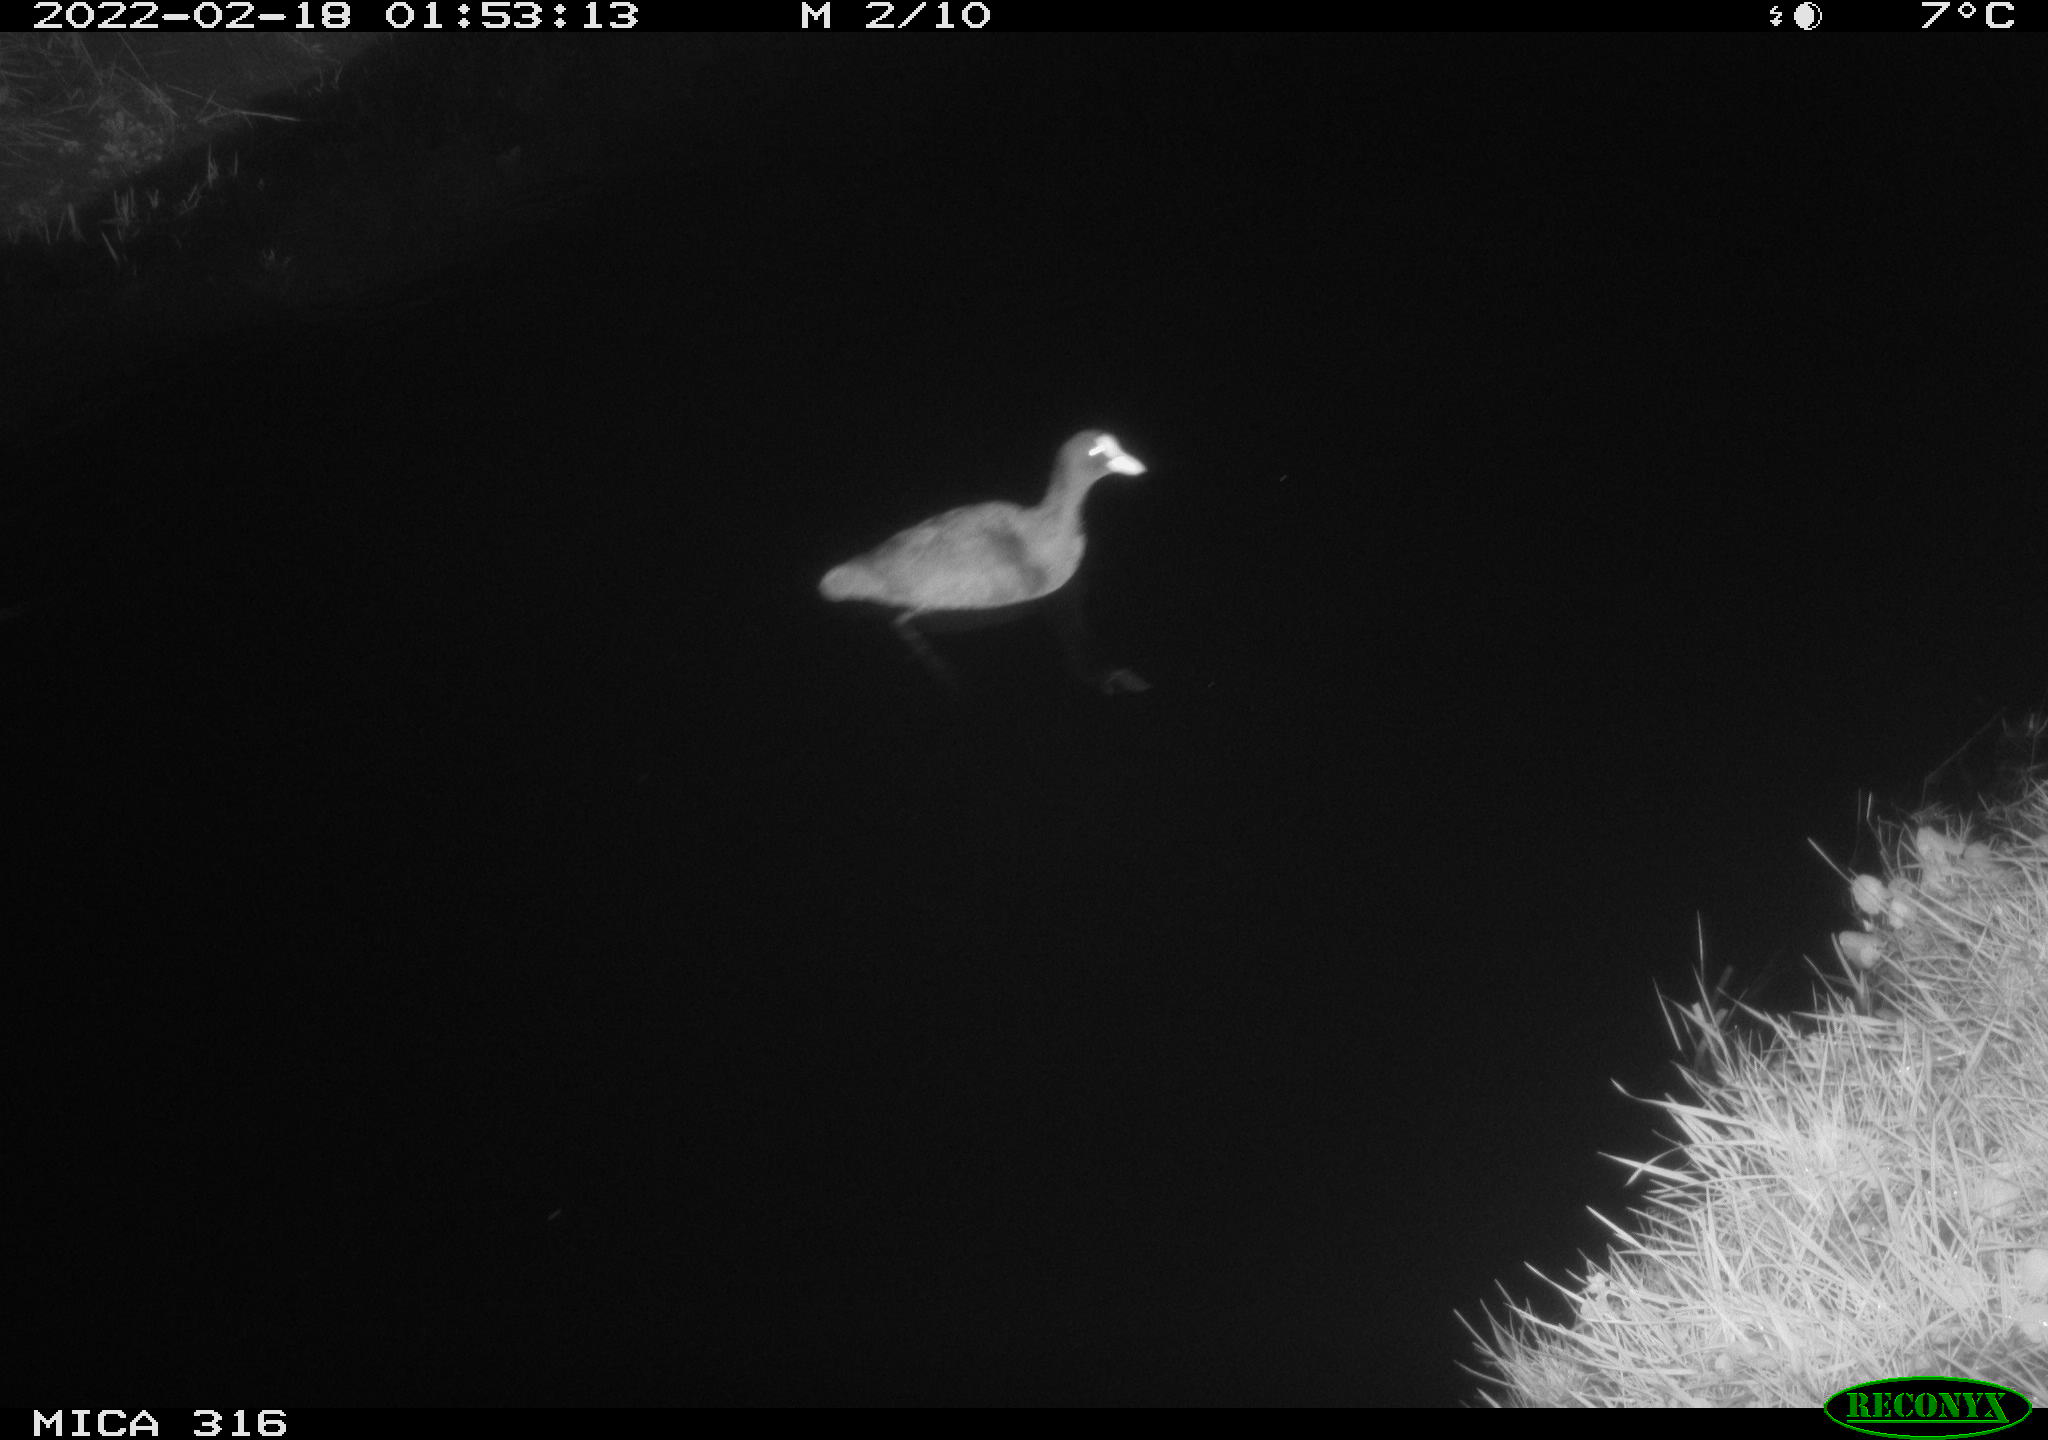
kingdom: Animalia
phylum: Chordata
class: Aves
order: Gruiformes
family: Rallidae
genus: Fulica
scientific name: Fulica atra
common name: Eurasian coot
